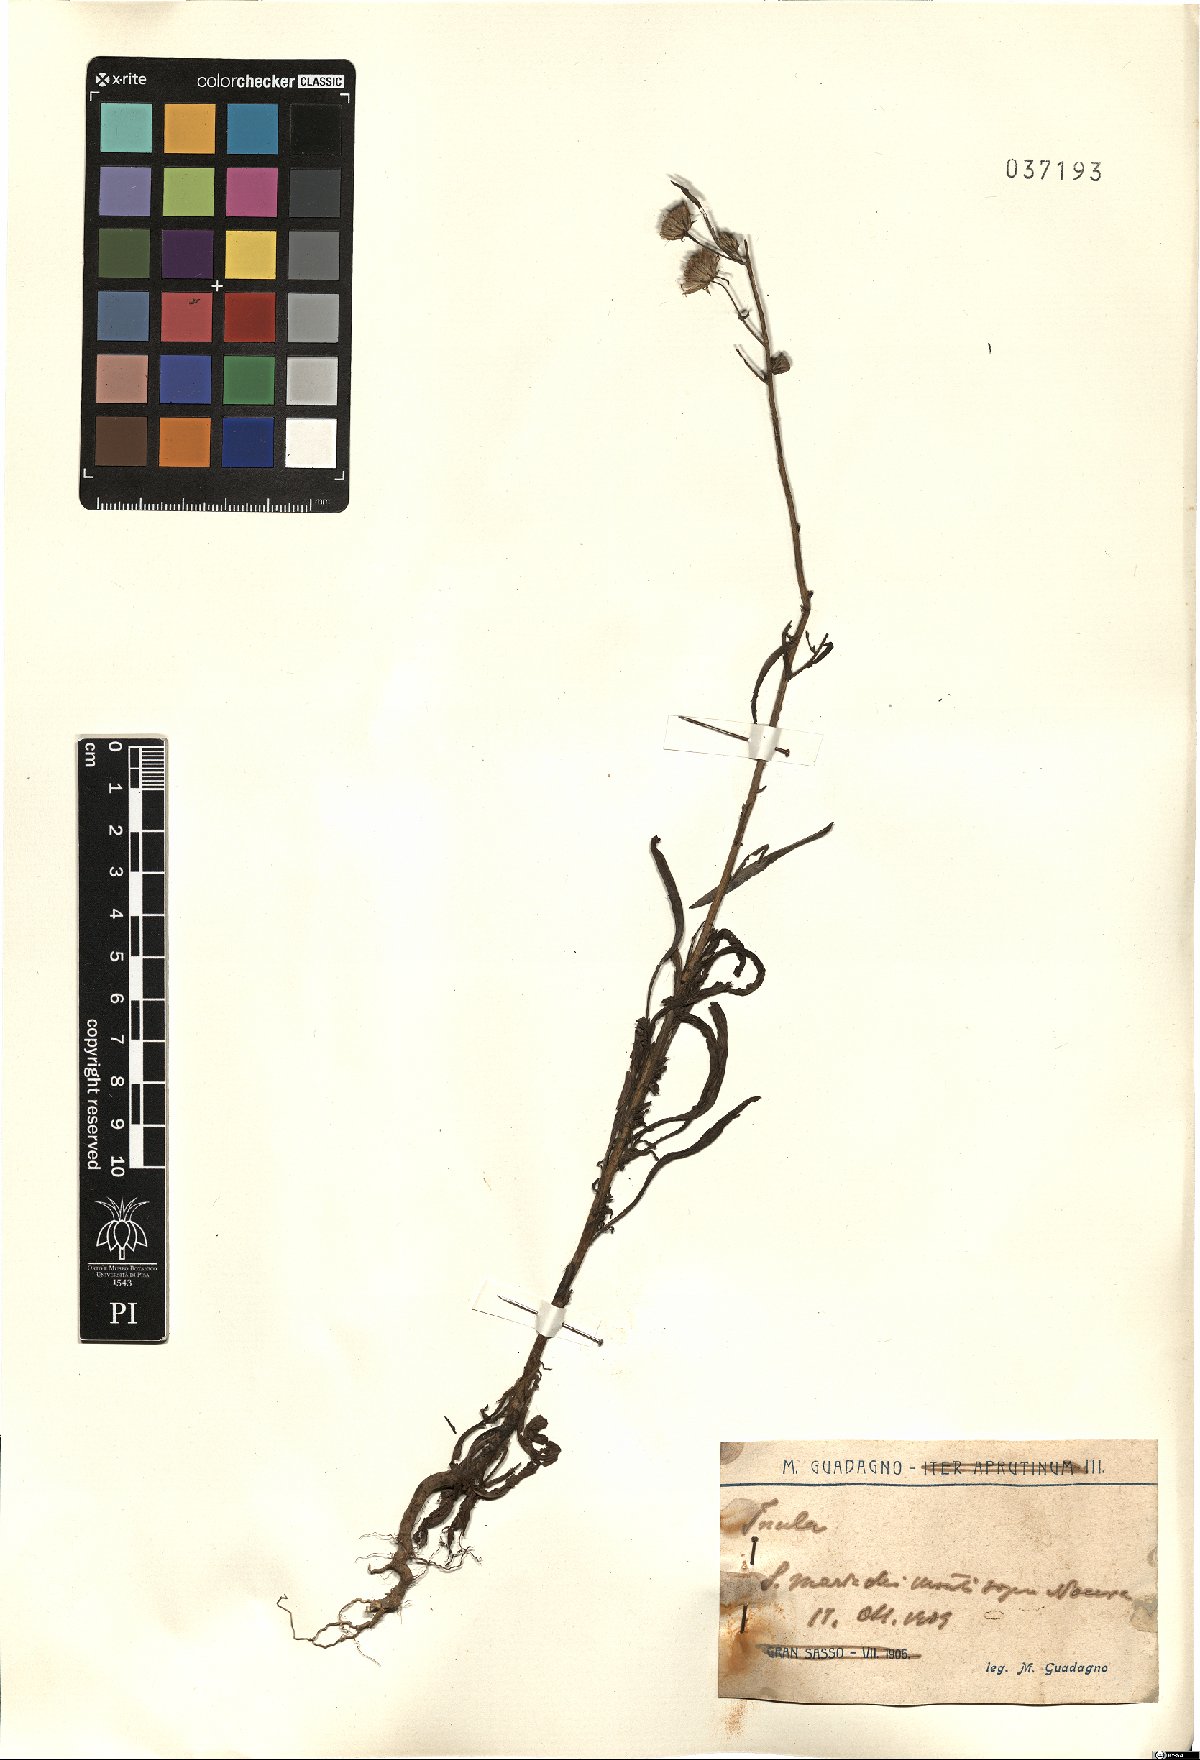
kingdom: Plantae
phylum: Tracheophyta
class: Magnoliopsida
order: Asterales
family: Asteraceae
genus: Inula
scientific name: Inula
